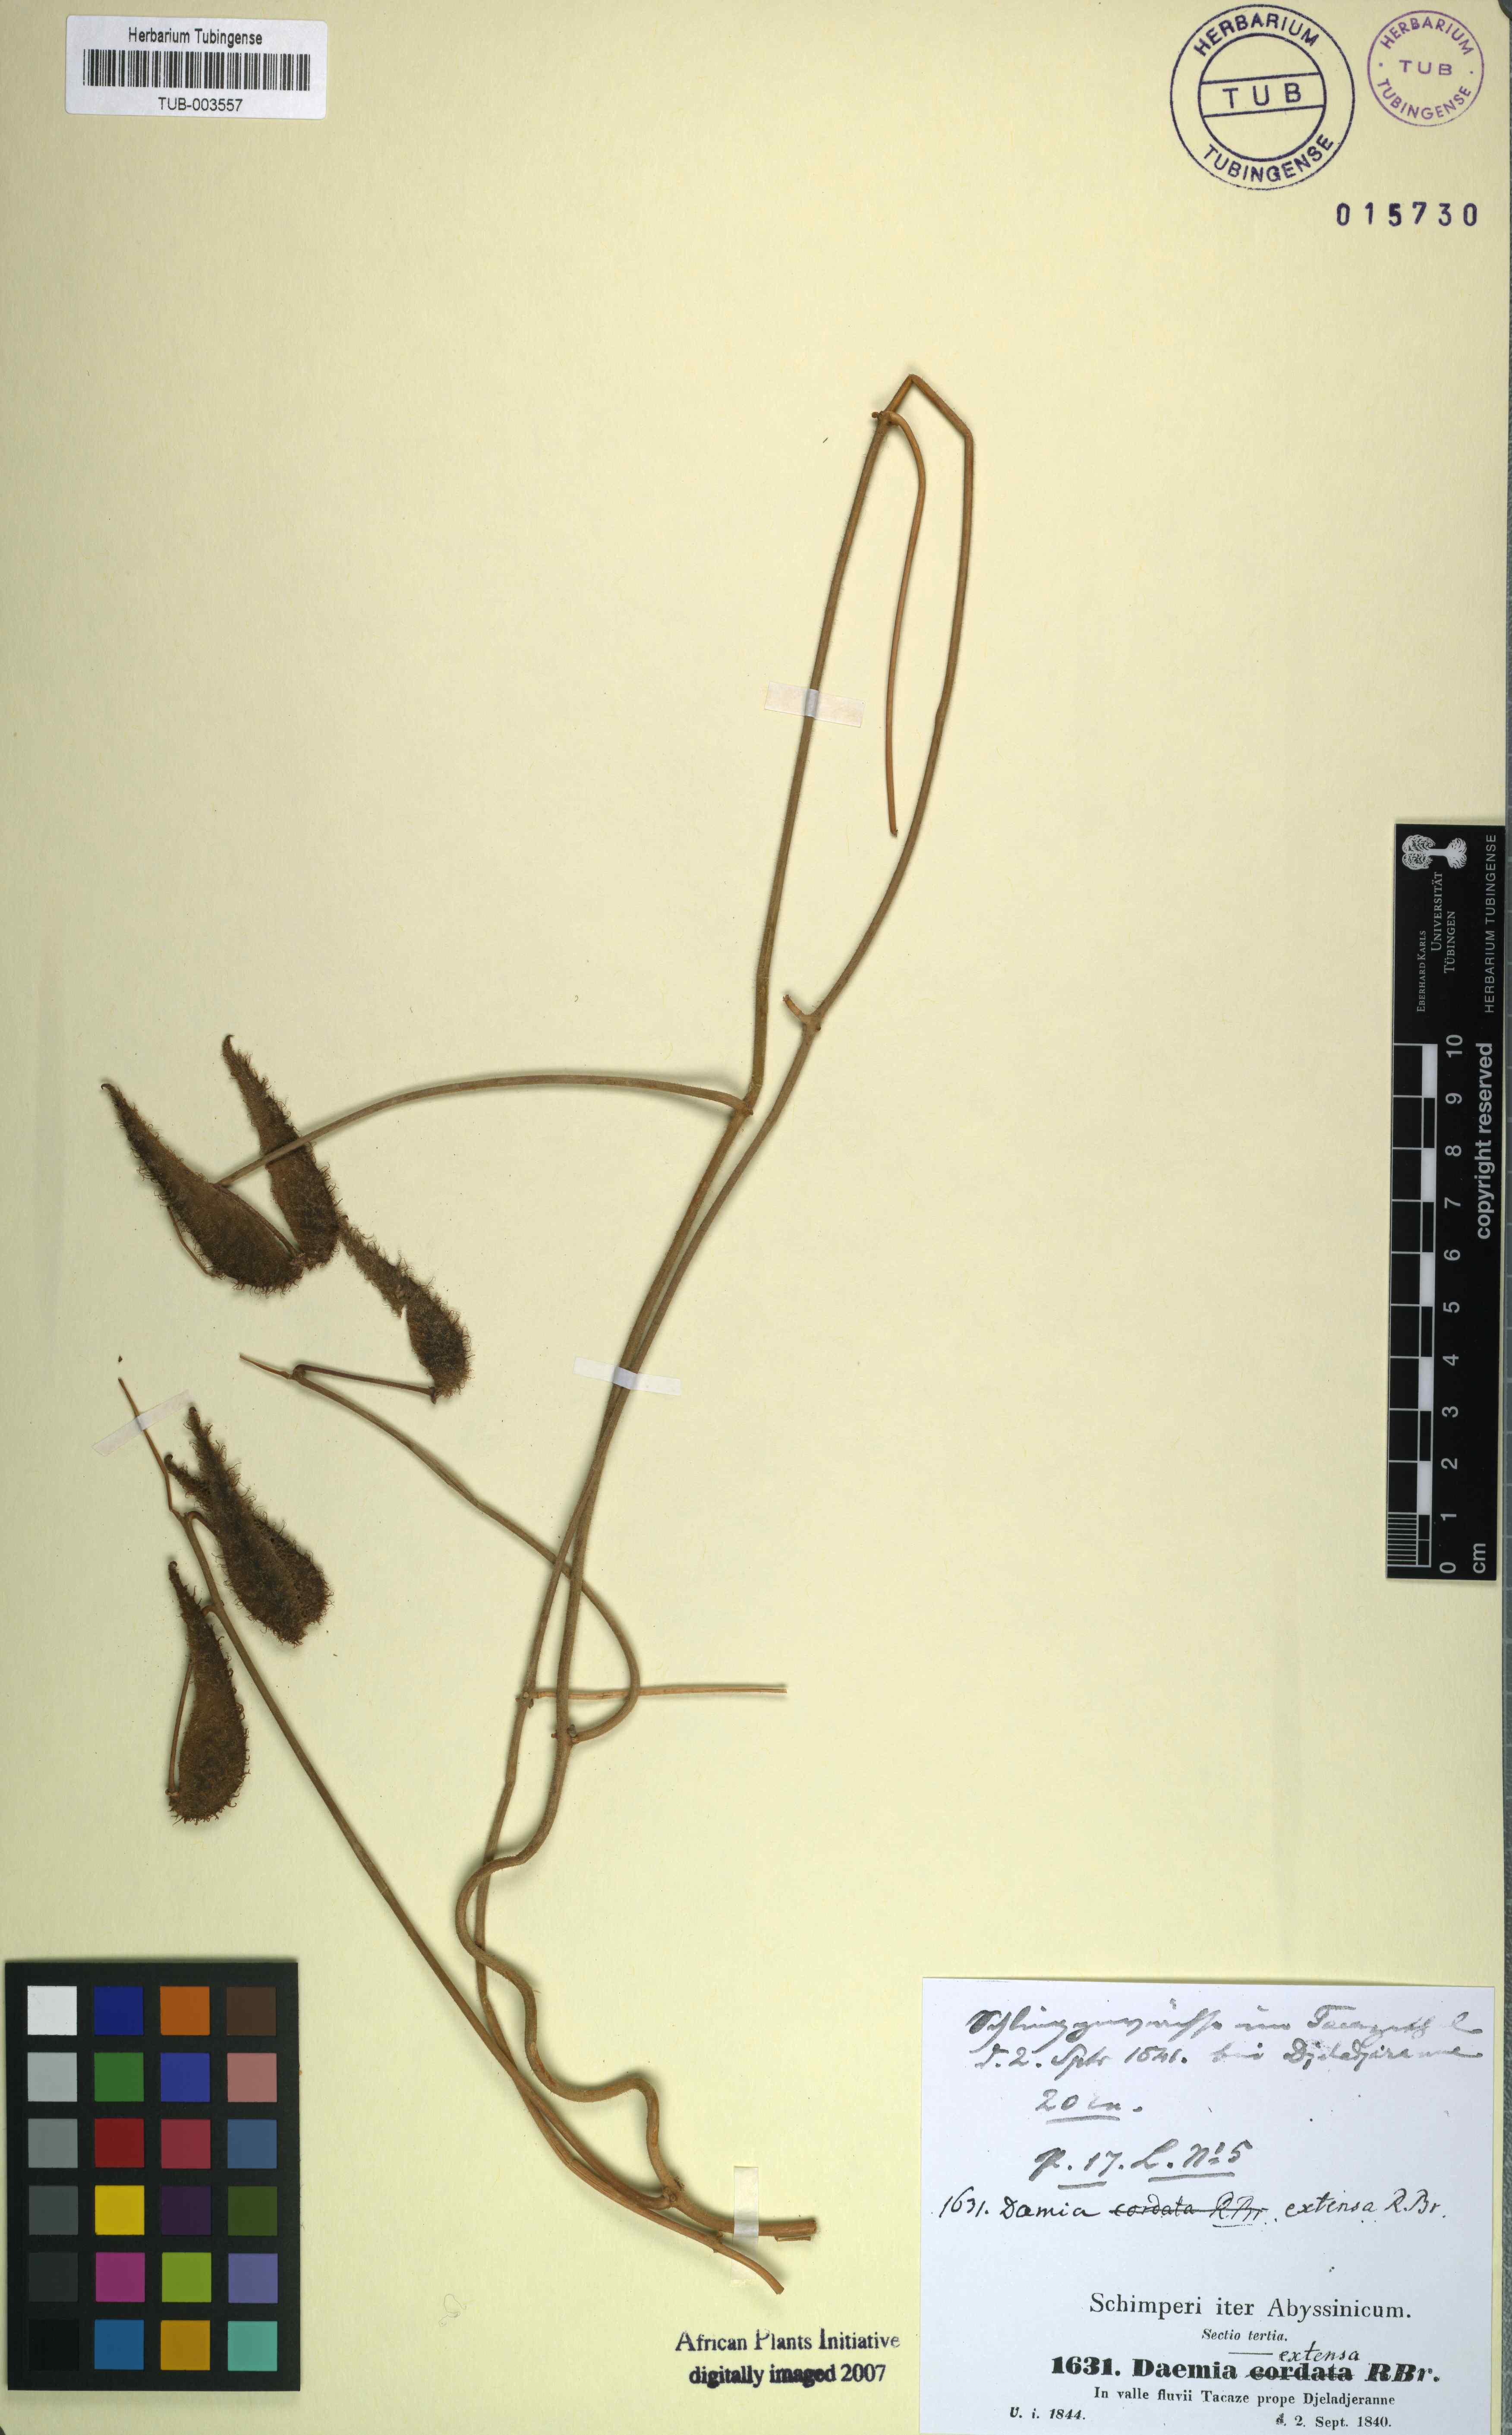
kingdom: Plantae
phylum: Tracheophyta
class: Magnoliopsida
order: Gentianales
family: Apocynaceae
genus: Pergularia
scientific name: Pergularia daemia
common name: Trellis-vine
